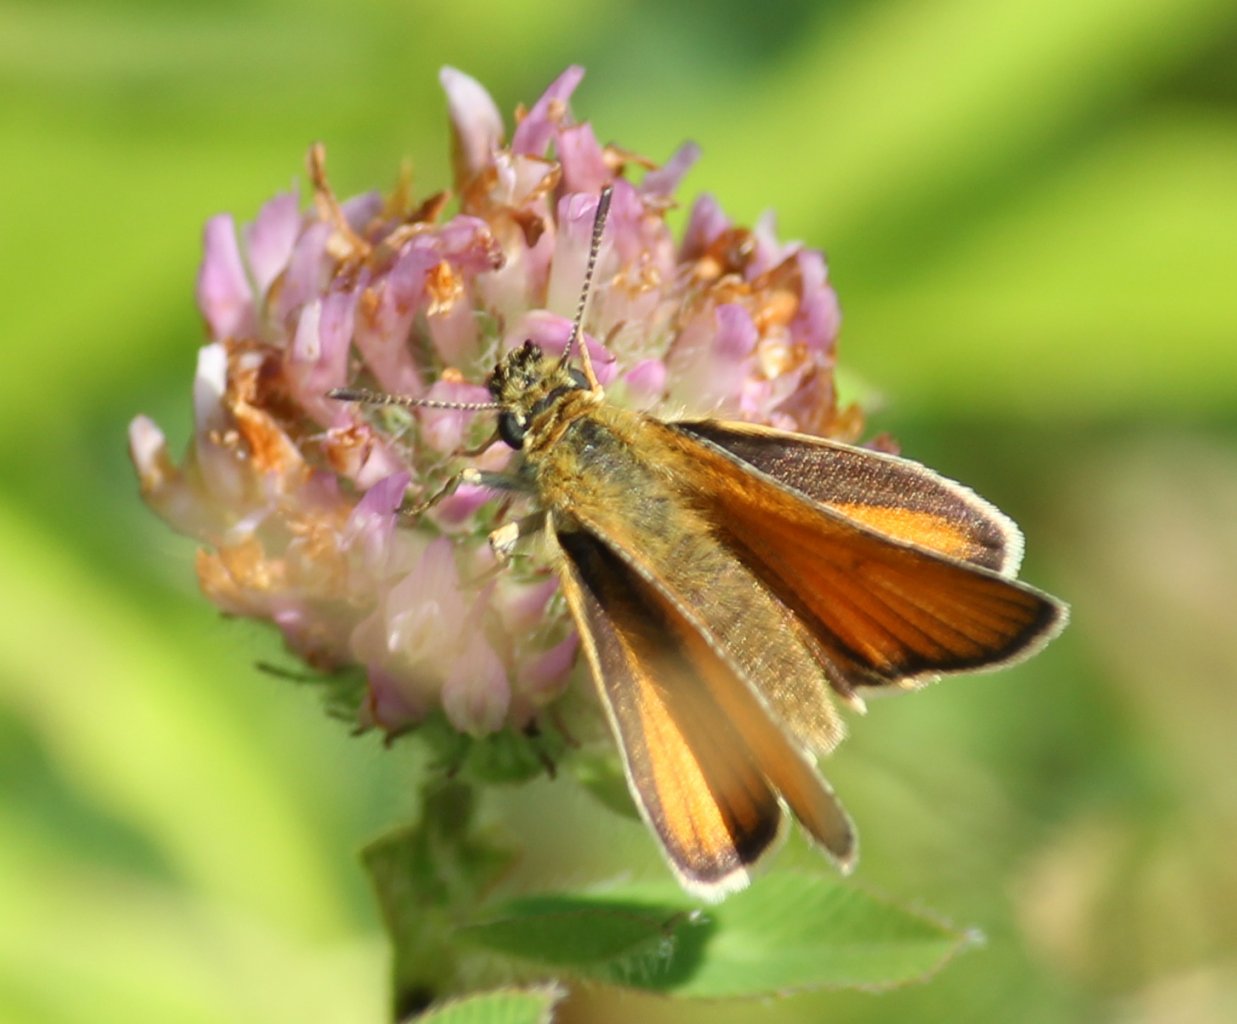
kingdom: Animalia
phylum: Arthropoda
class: Insecta
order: Lepidoptera
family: Hesperiidae
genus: Thymelicus
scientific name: Thymelicus lineola
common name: European Skipper
